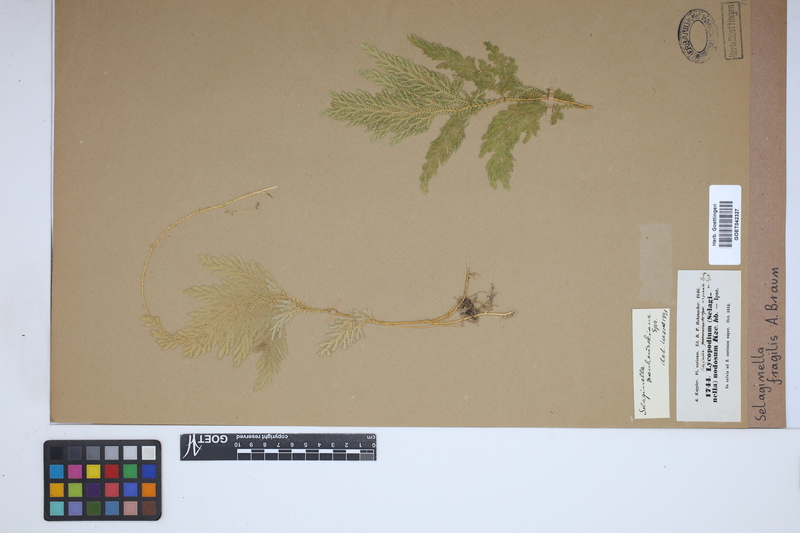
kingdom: Plantae
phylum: Tracheophyta
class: Lycopodiopsida
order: Selaginellales
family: Selaginellaceae
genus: Selaginella
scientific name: Selaginella fragilis
